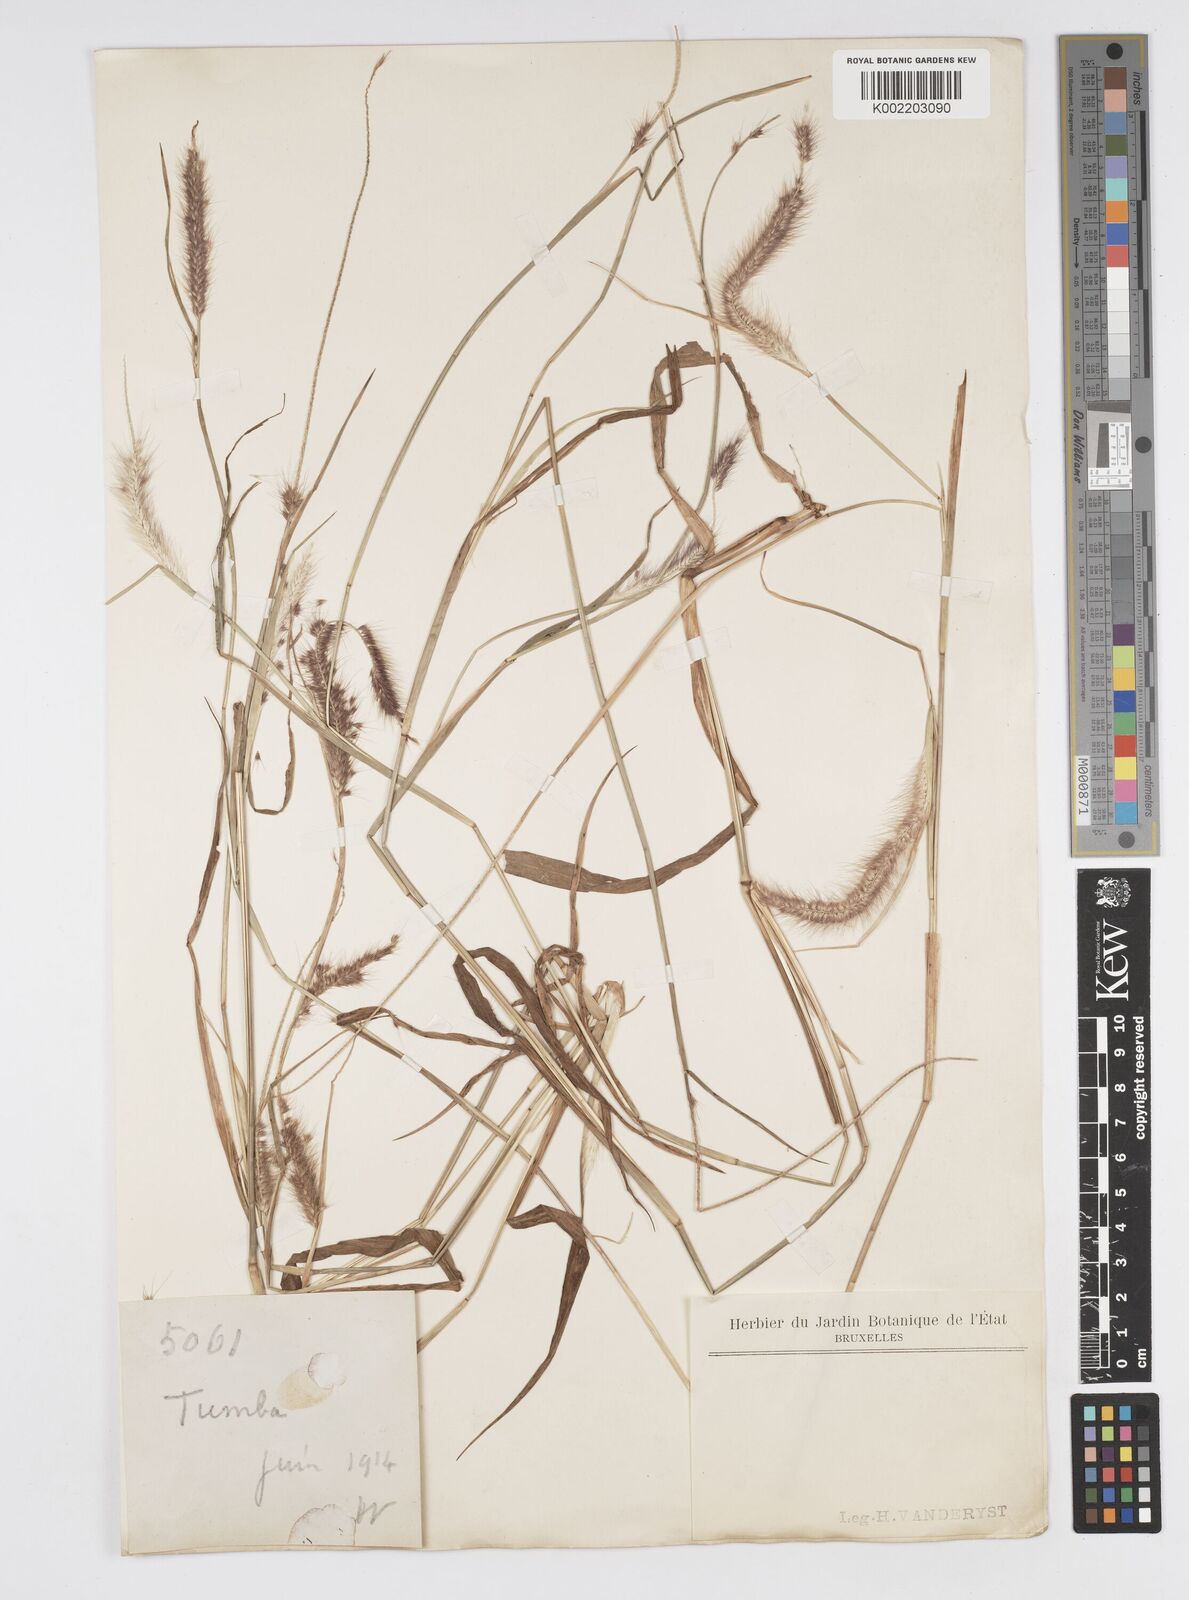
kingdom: Plantae
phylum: Tracheophyta
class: Liliopsida
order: Poales
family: Poaceae
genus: Setaria
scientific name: Setaria parviflora
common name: Knotroot bristle-grass
